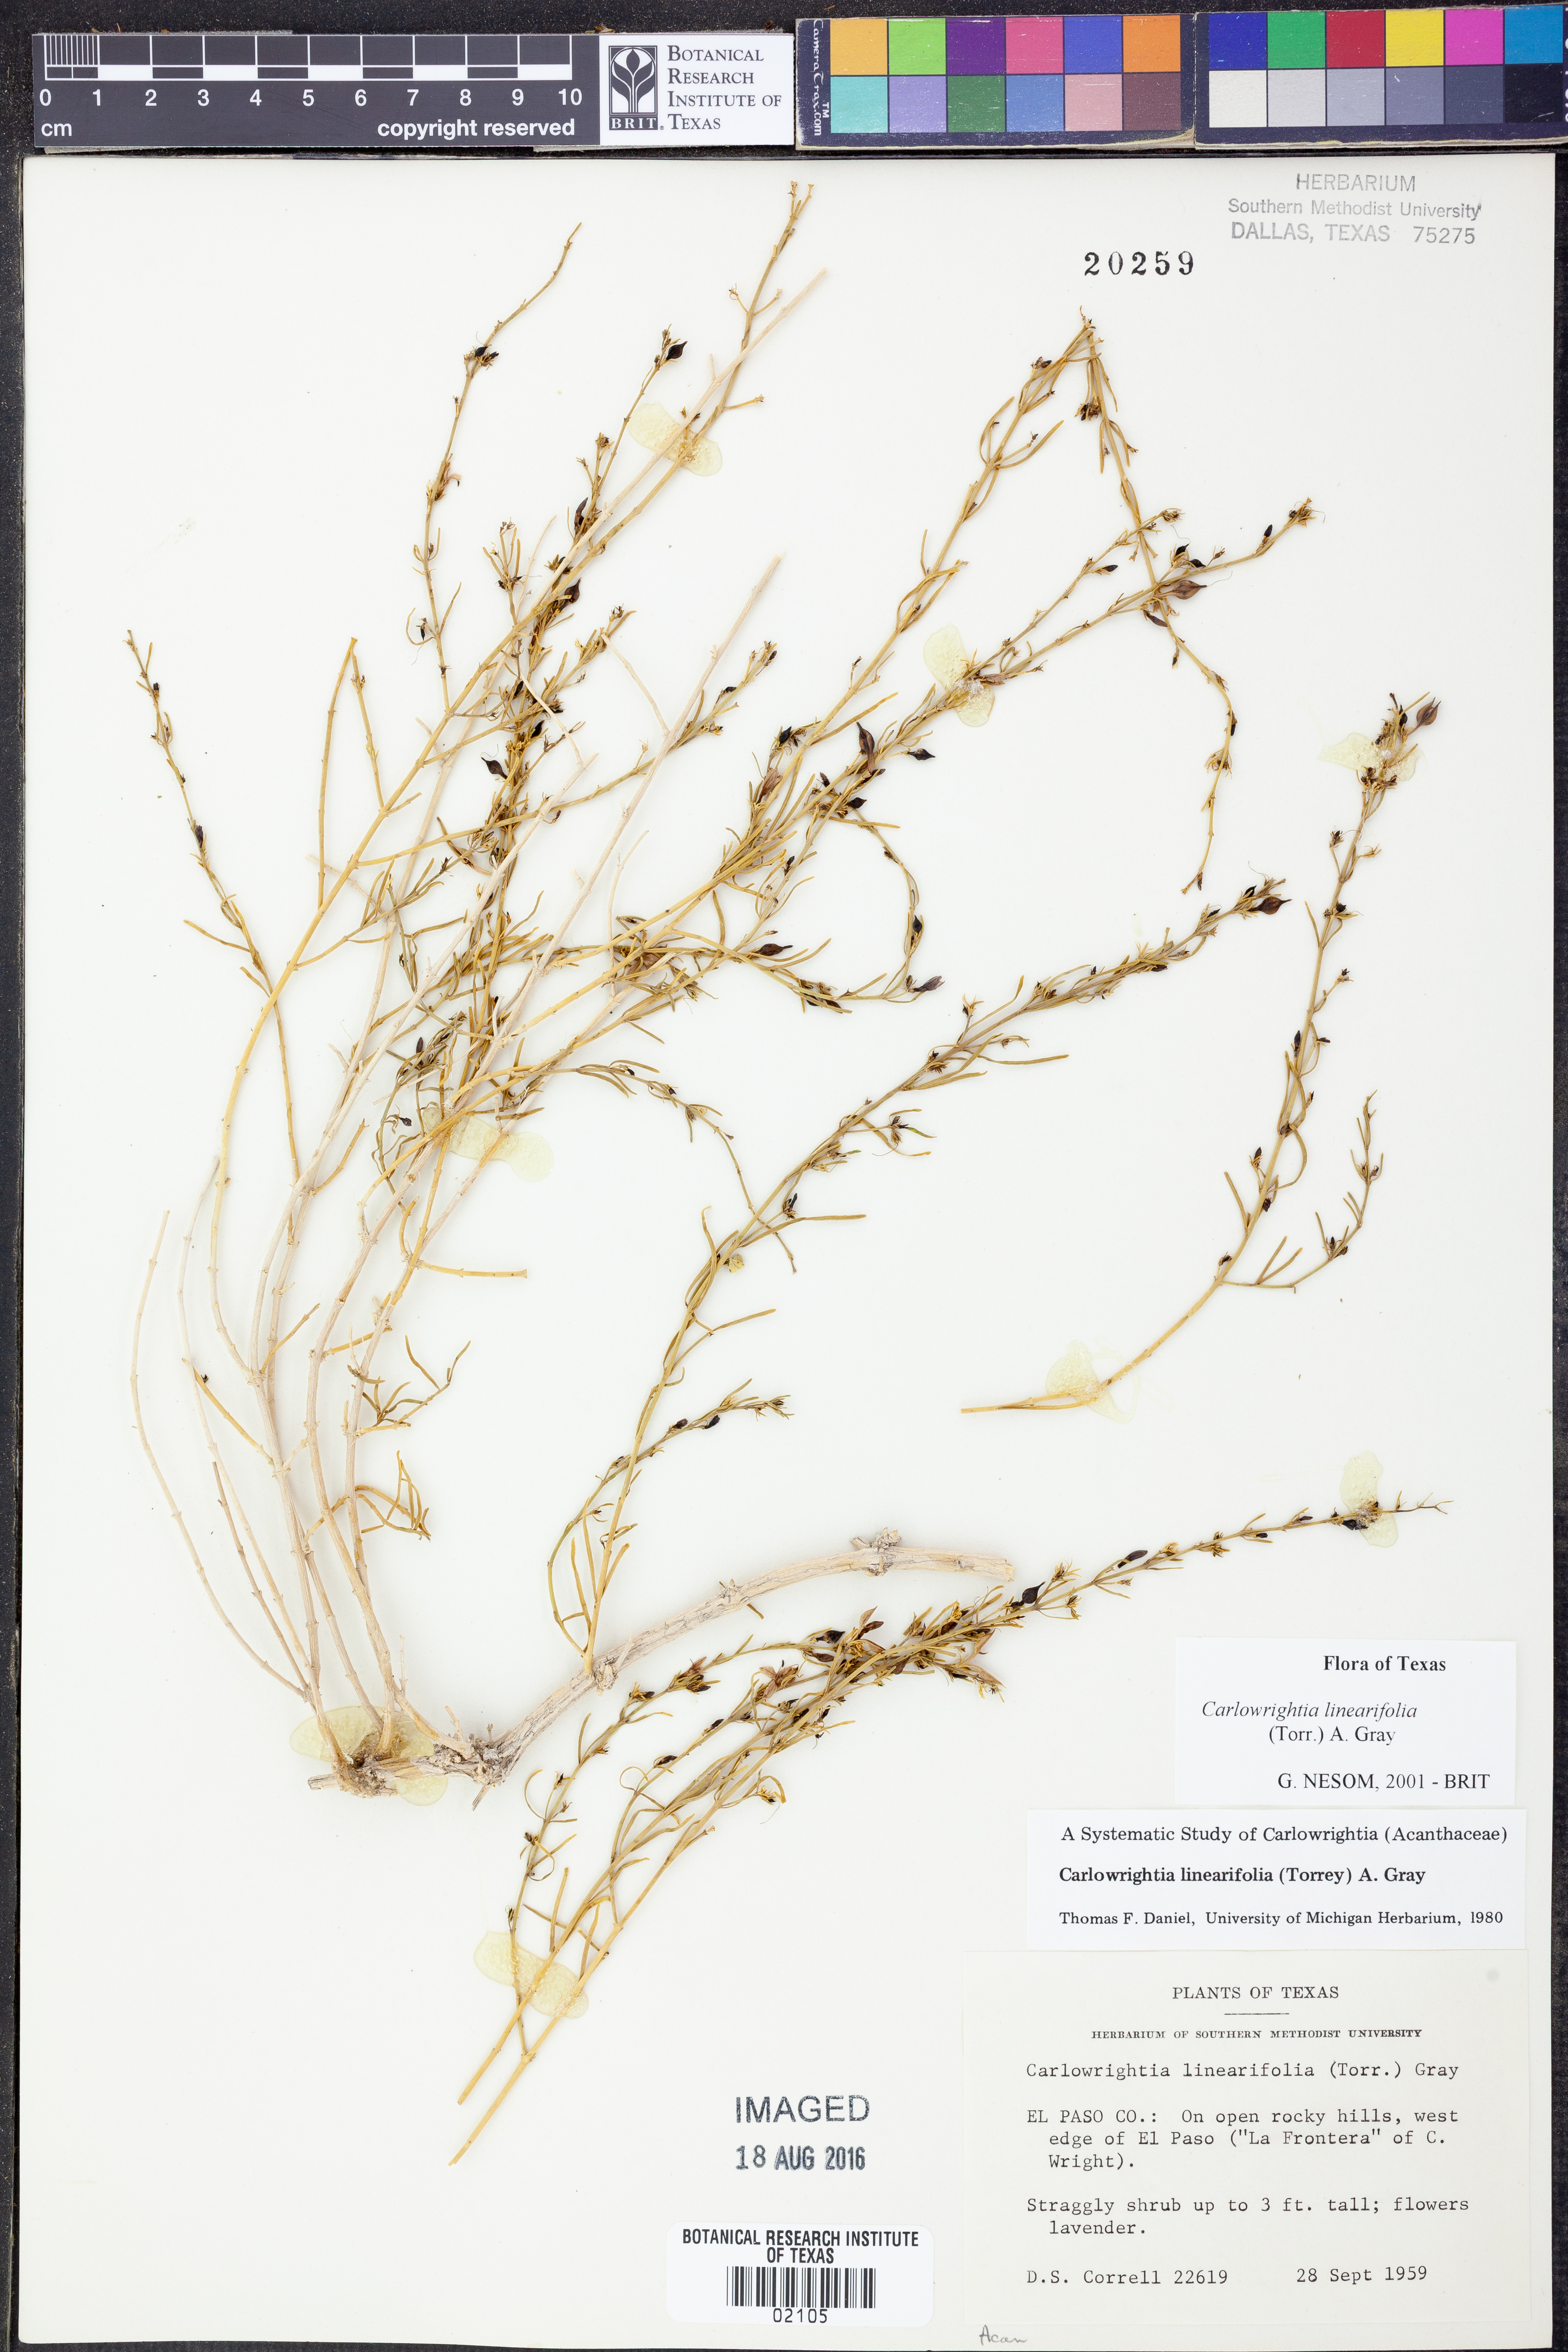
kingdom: Plantae
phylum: Tracheophyta
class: Magnoliopsida
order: Lamiales
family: Acanthaceae
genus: Carlowrightia
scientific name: Carlowrightia linearifolia
